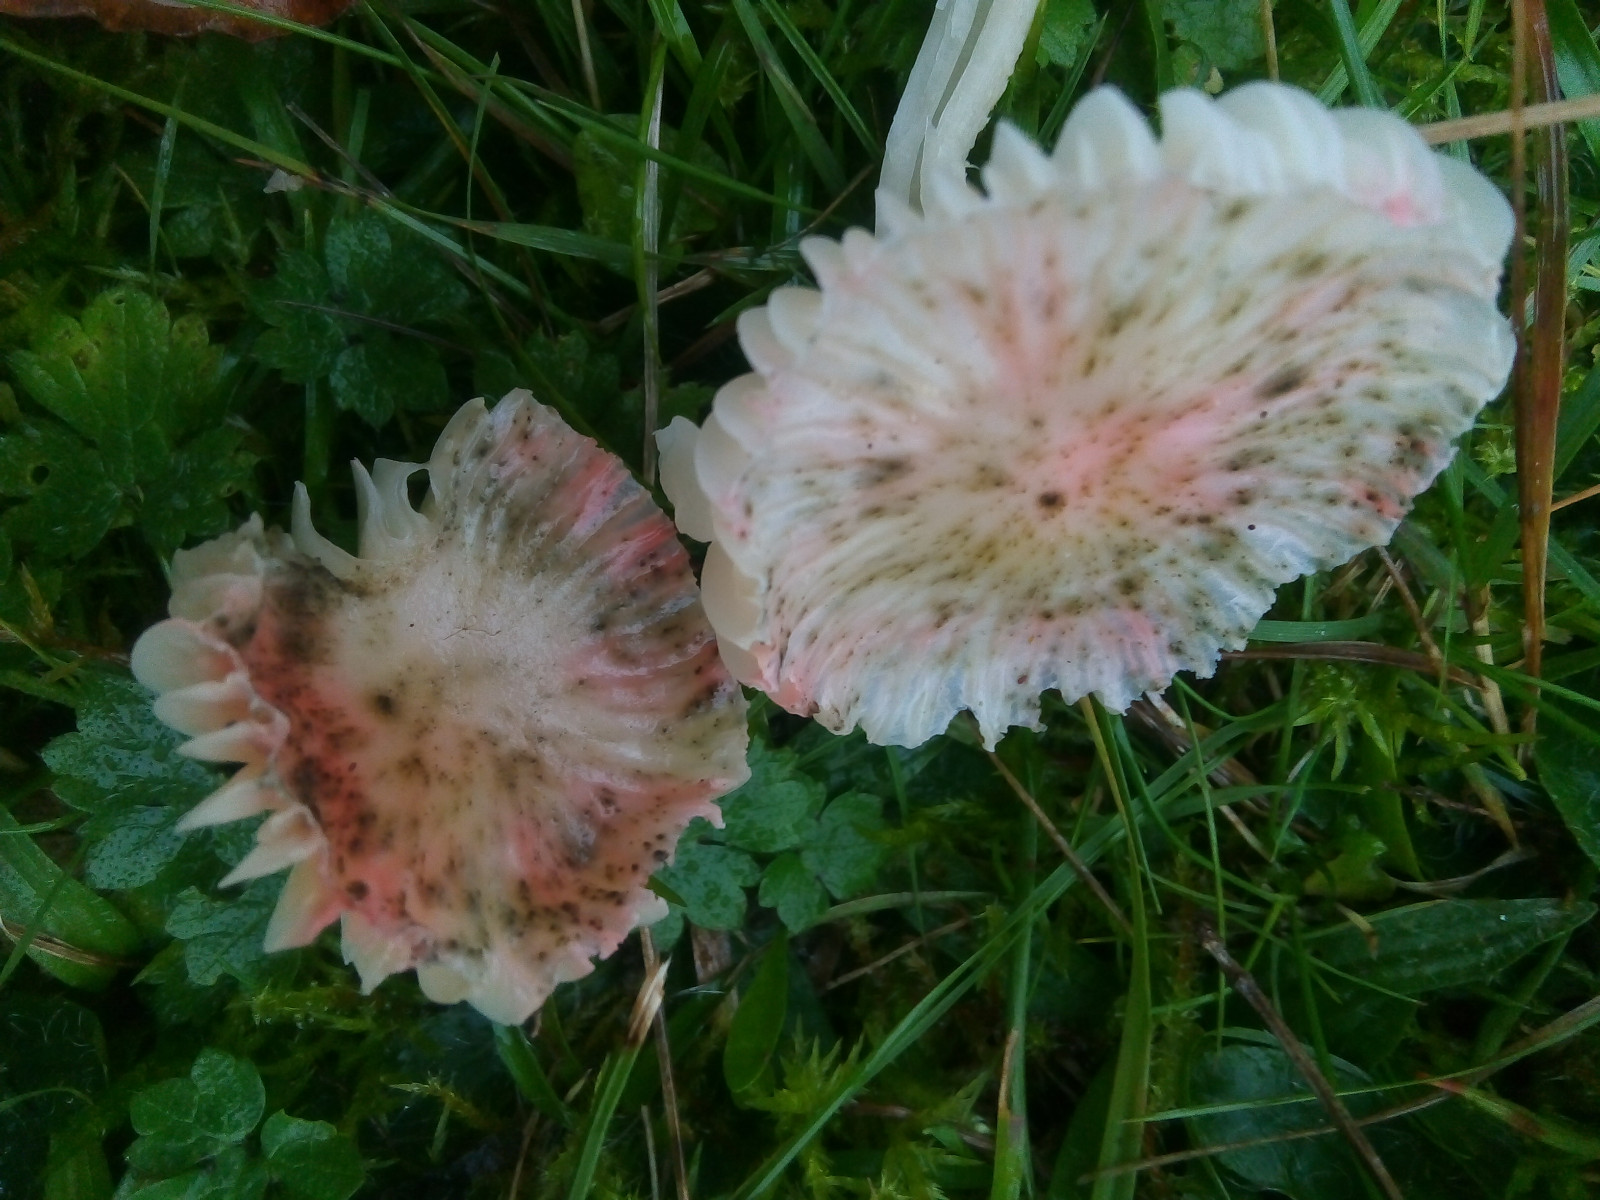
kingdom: Fungi
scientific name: Fungi
